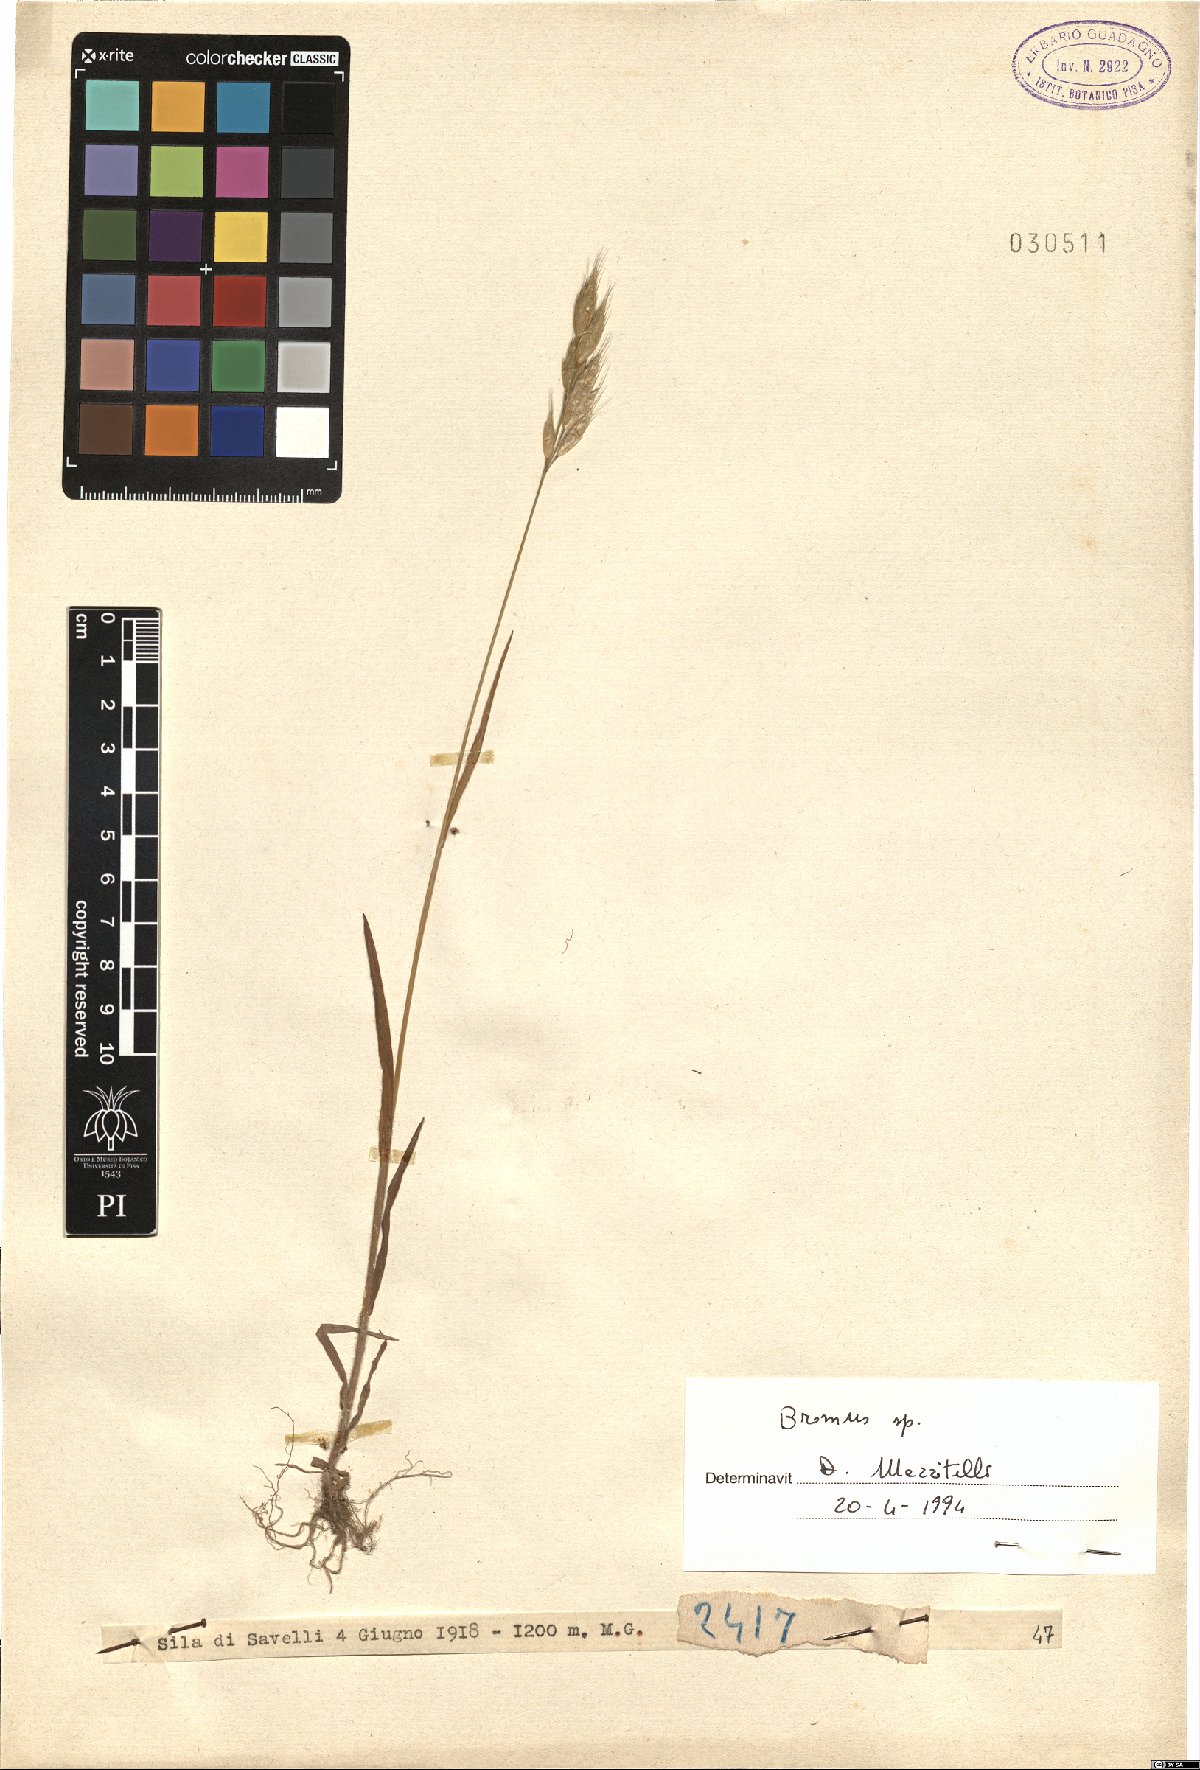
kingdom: Plantae
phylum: Tracheophyta
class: Liliopsida
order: Poales
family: Poaceae
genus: Bromus
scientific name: Bromus
